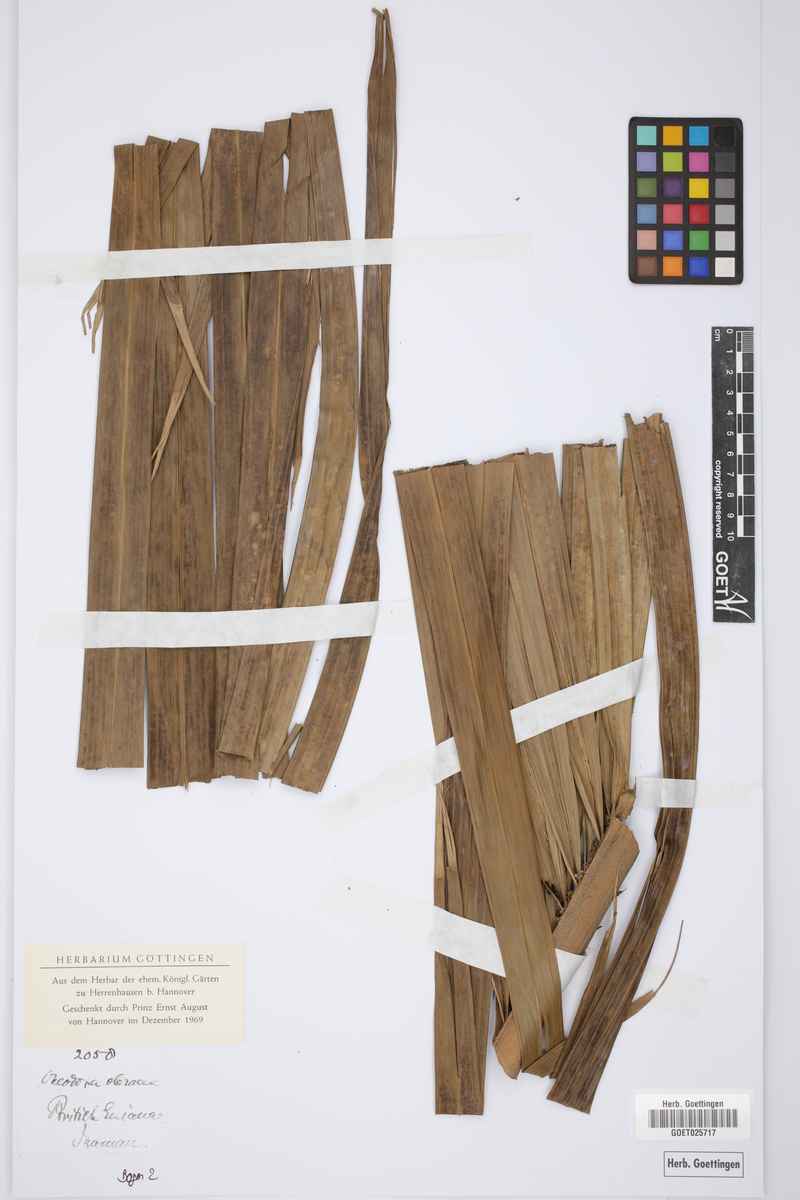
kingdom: Plantae
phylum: Tracheophyta
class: Liliopsida
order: Arecales
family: Arecaceae
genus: Roystonea
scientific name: Roystonea oleracea
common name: South american royal palm
